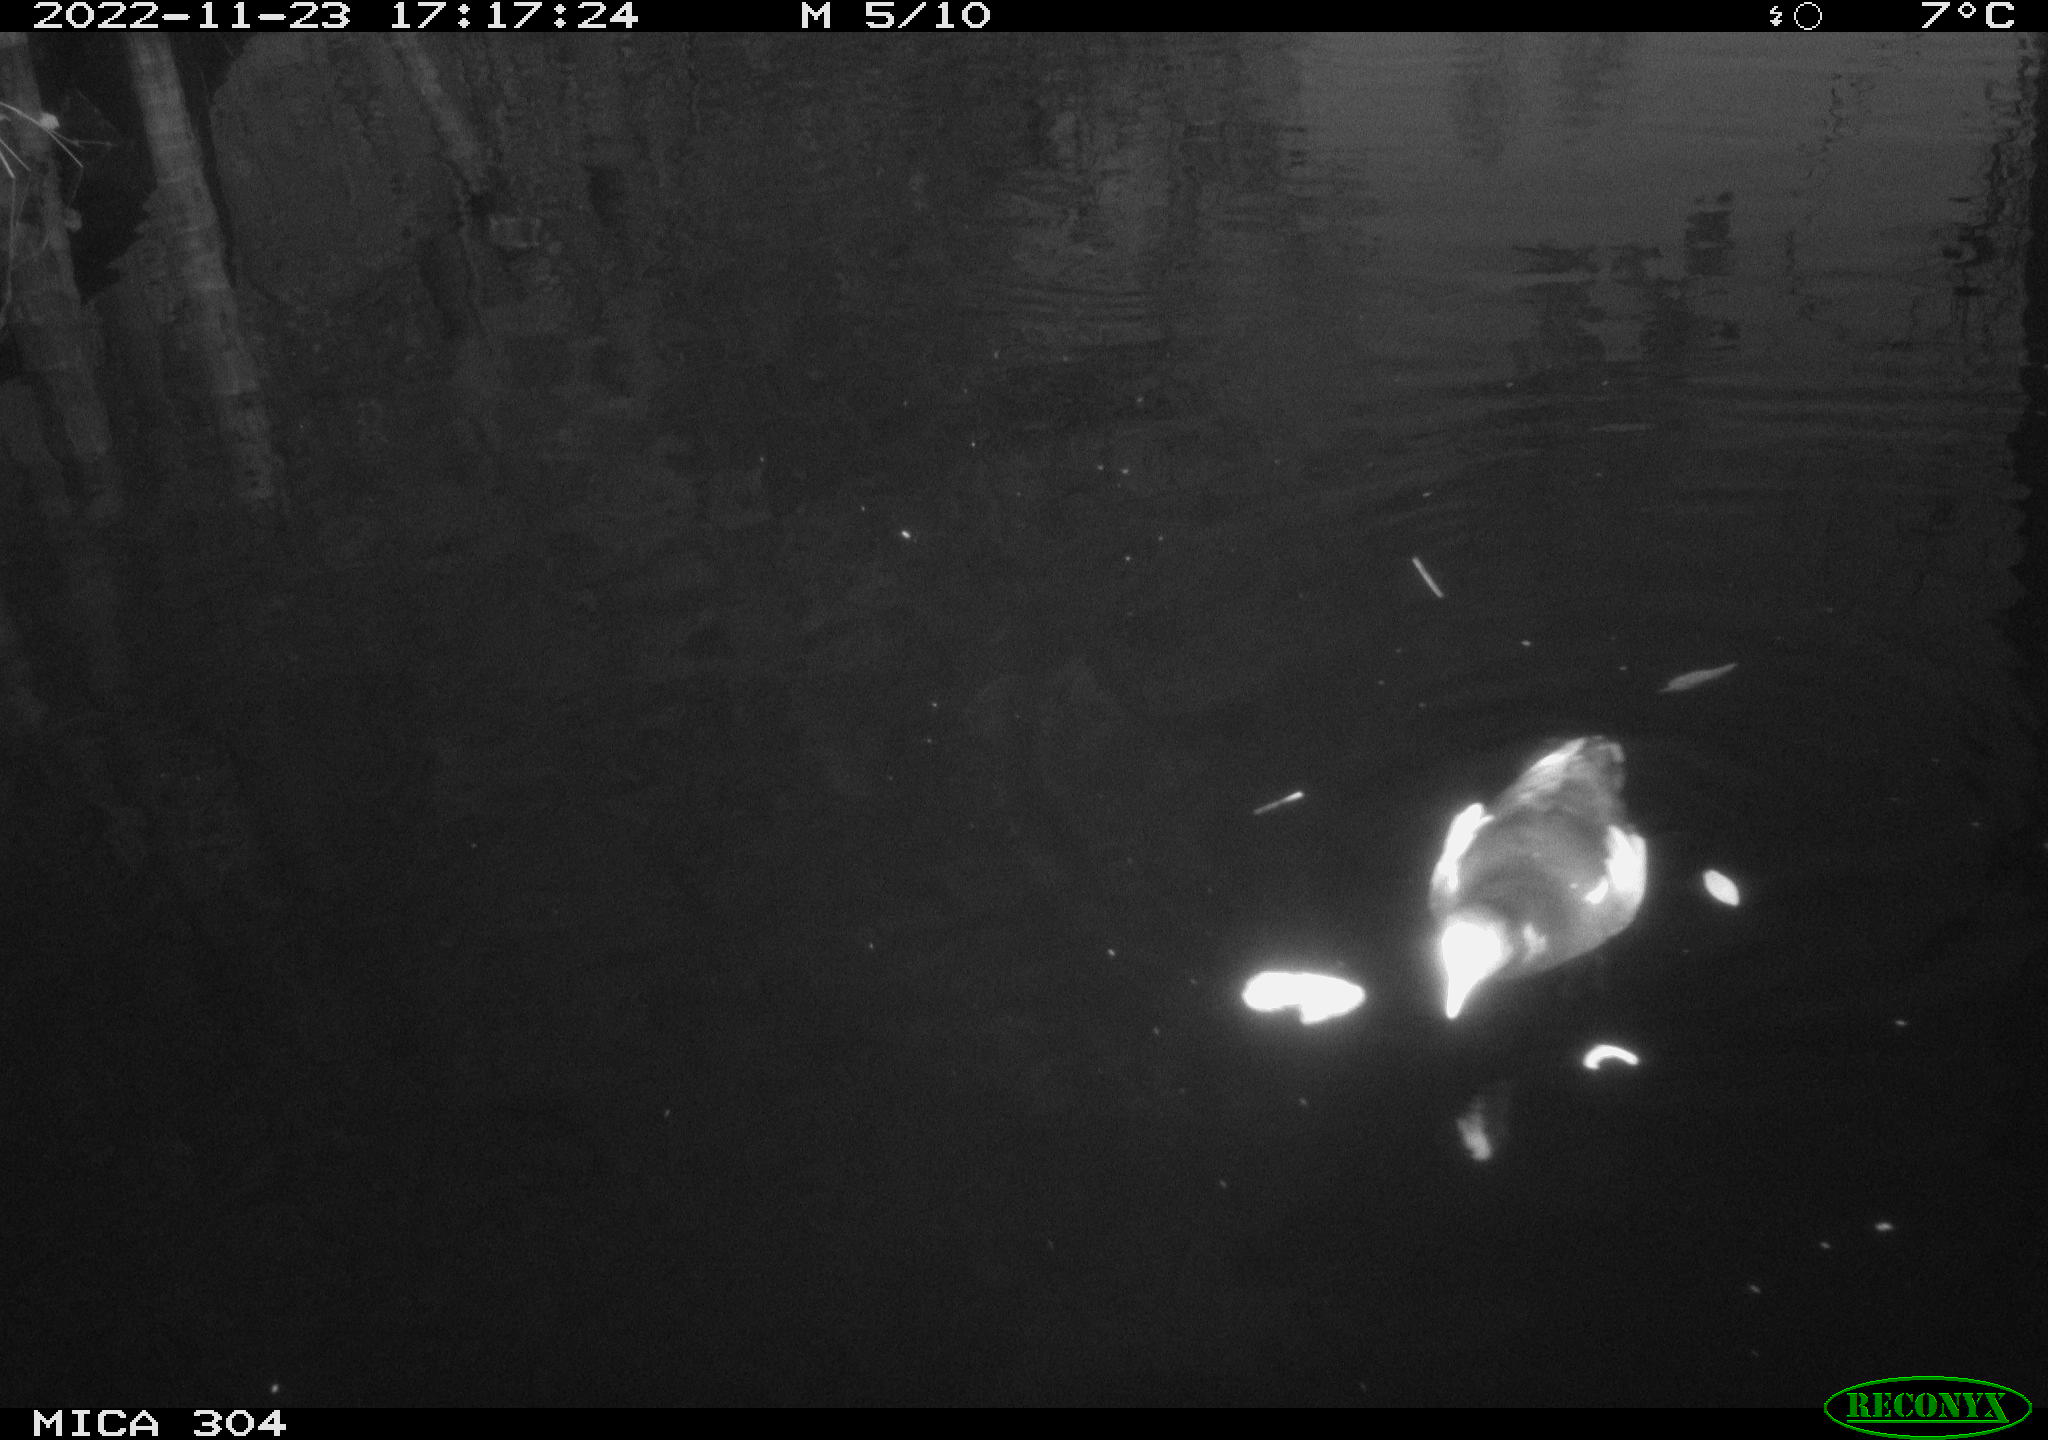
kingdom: Animalia
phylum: Chordata
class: Aves
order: Gruiformes
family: Rallidae
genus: Gallinula
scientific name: Gallinula chloropus
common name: Common moorhen
